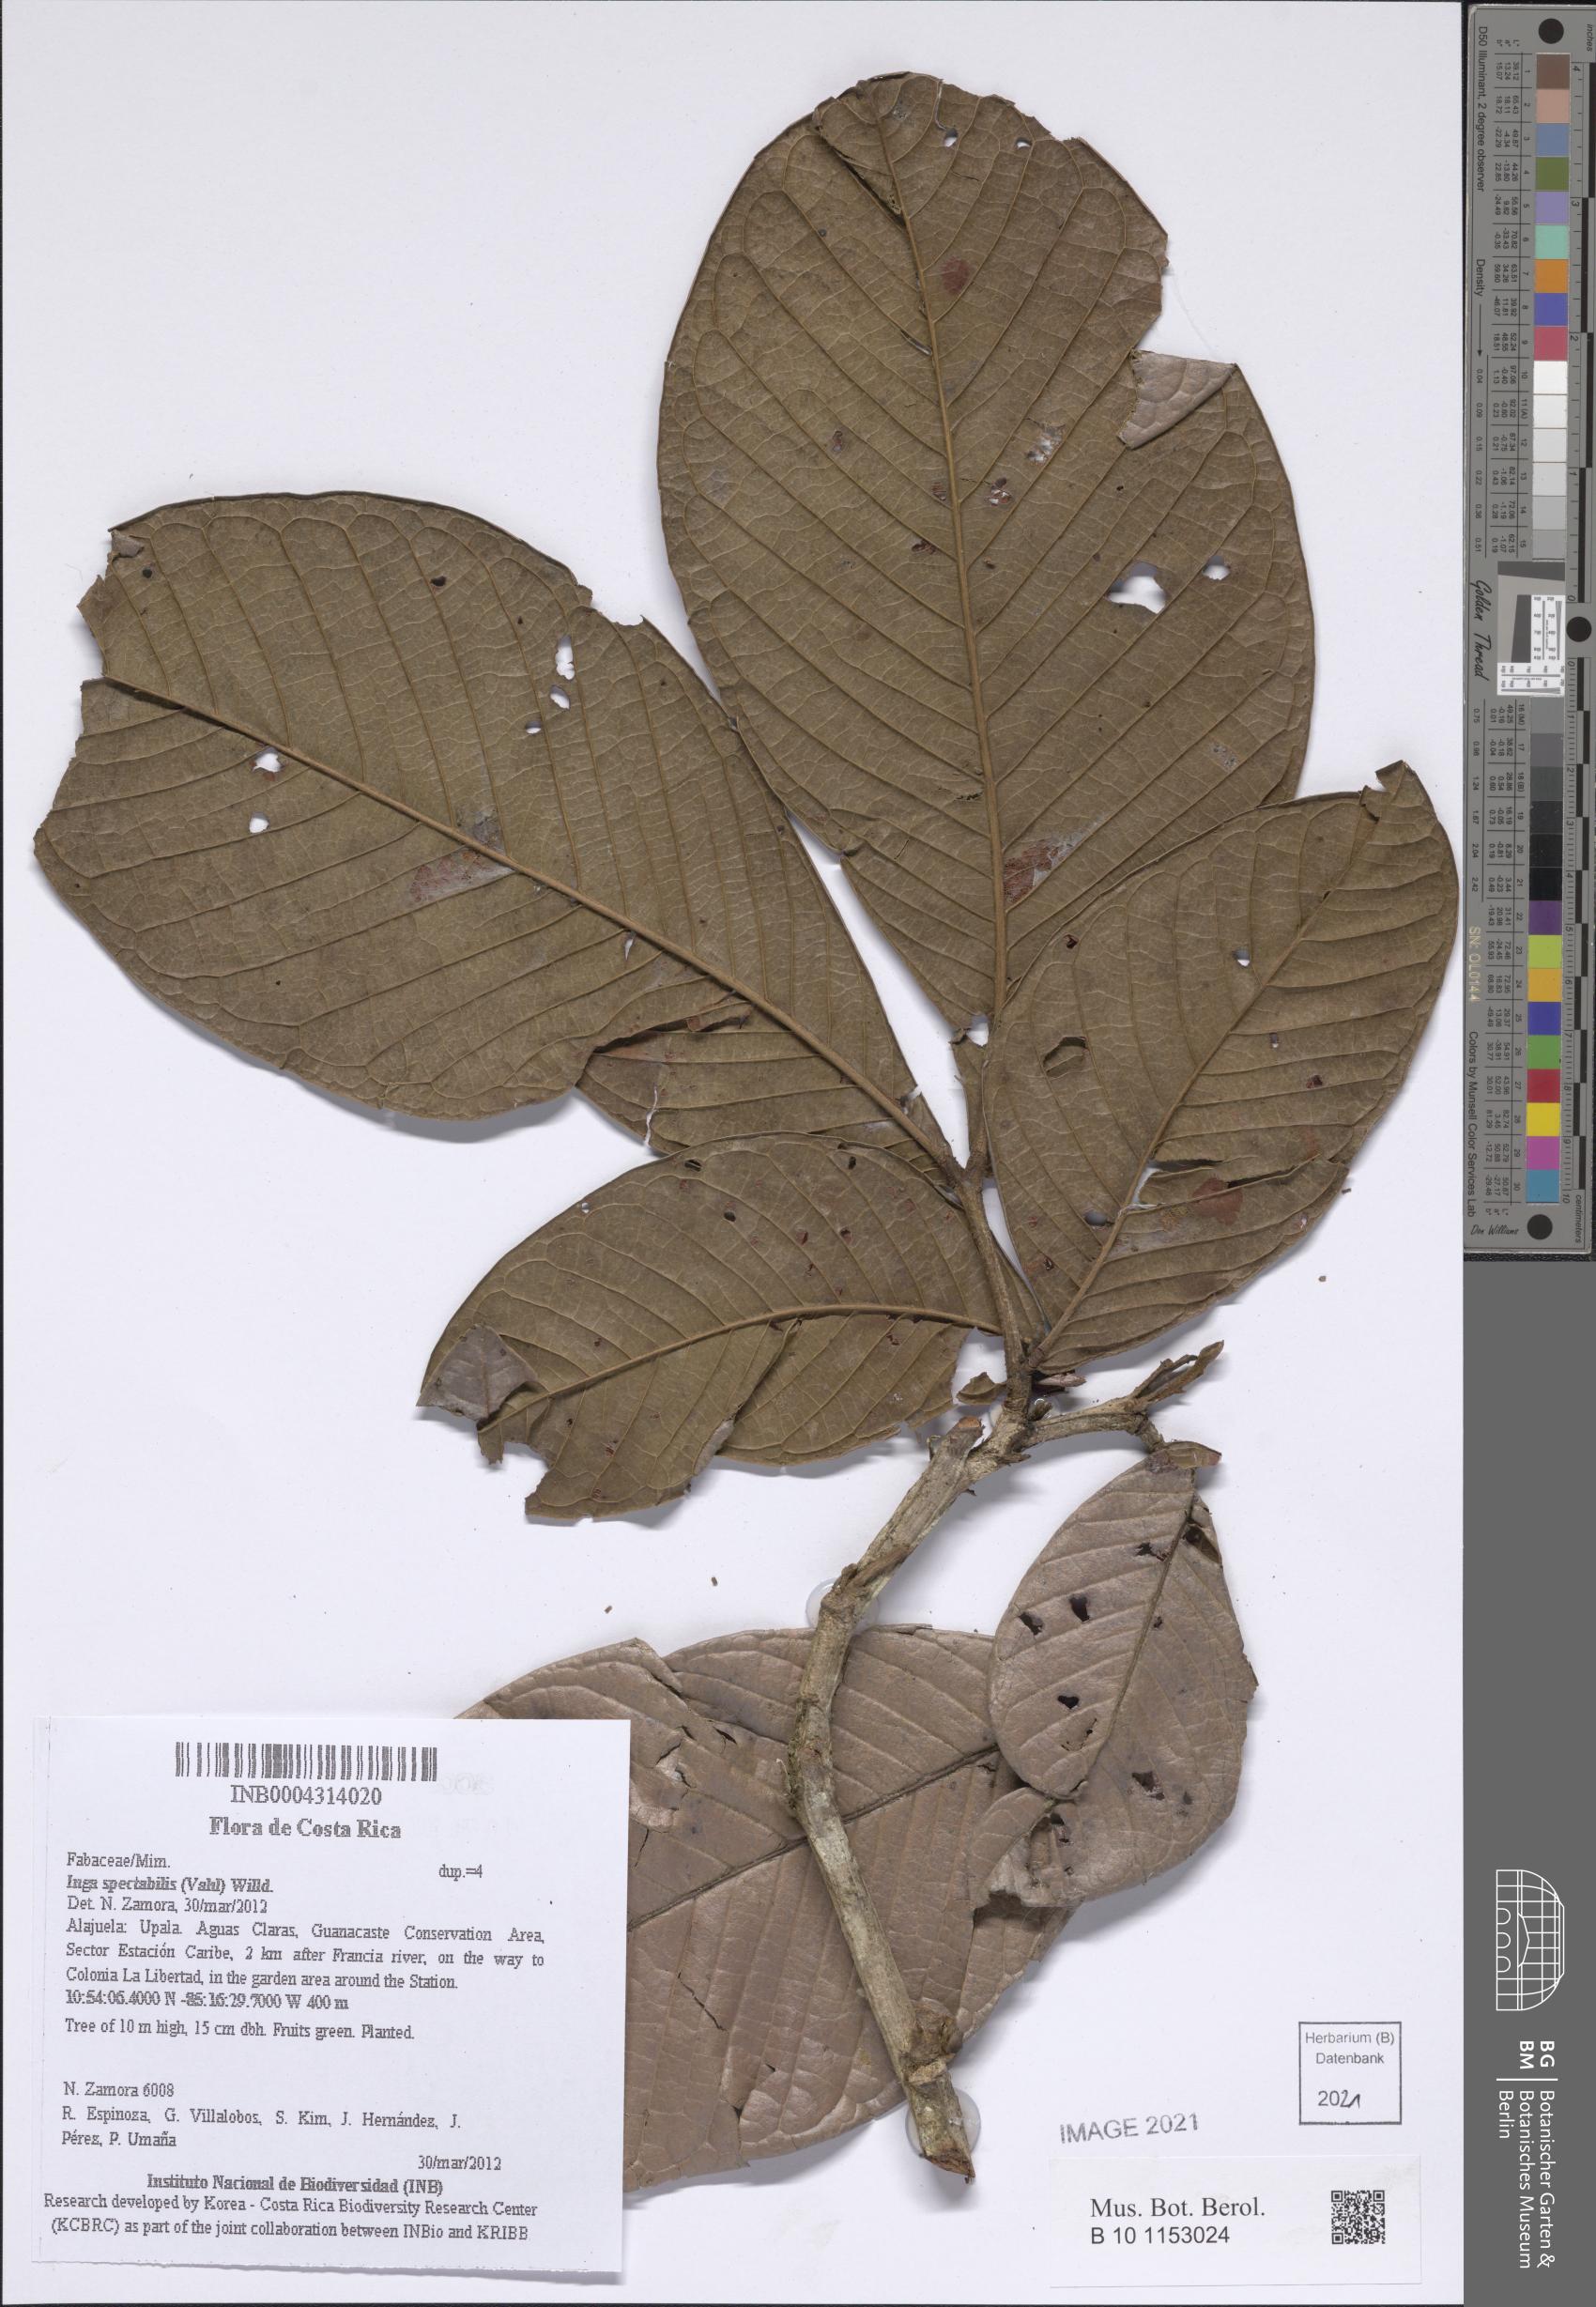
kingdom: Plantae
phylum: Tracheophyta
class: Magnoliopsida
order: Fabales
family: Fabaceae
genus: Inga
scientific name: Inga spectabilis
